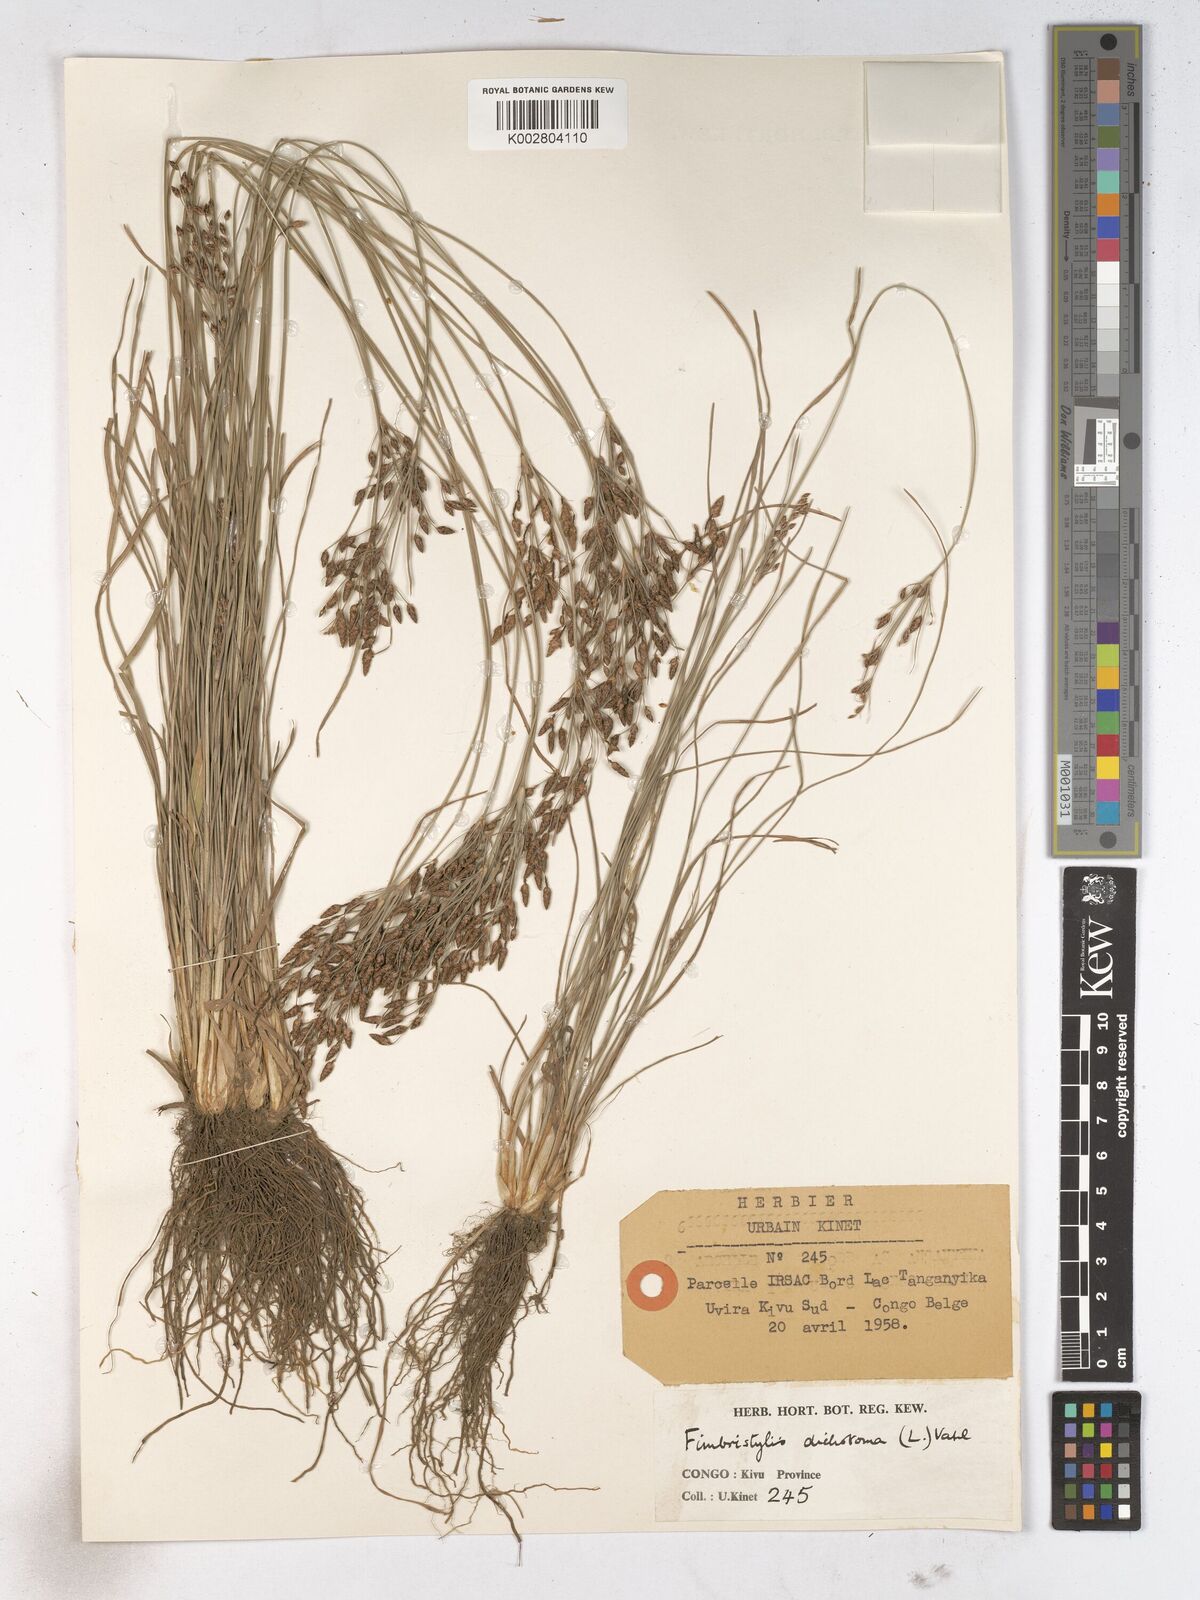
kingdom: Plantae
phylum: Tracheophyta
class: Liliopsida
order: Poales
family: Cyperaceae
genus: Fimbristylis
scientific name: Fimbristylis dichotoma
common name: Forked fimbry
